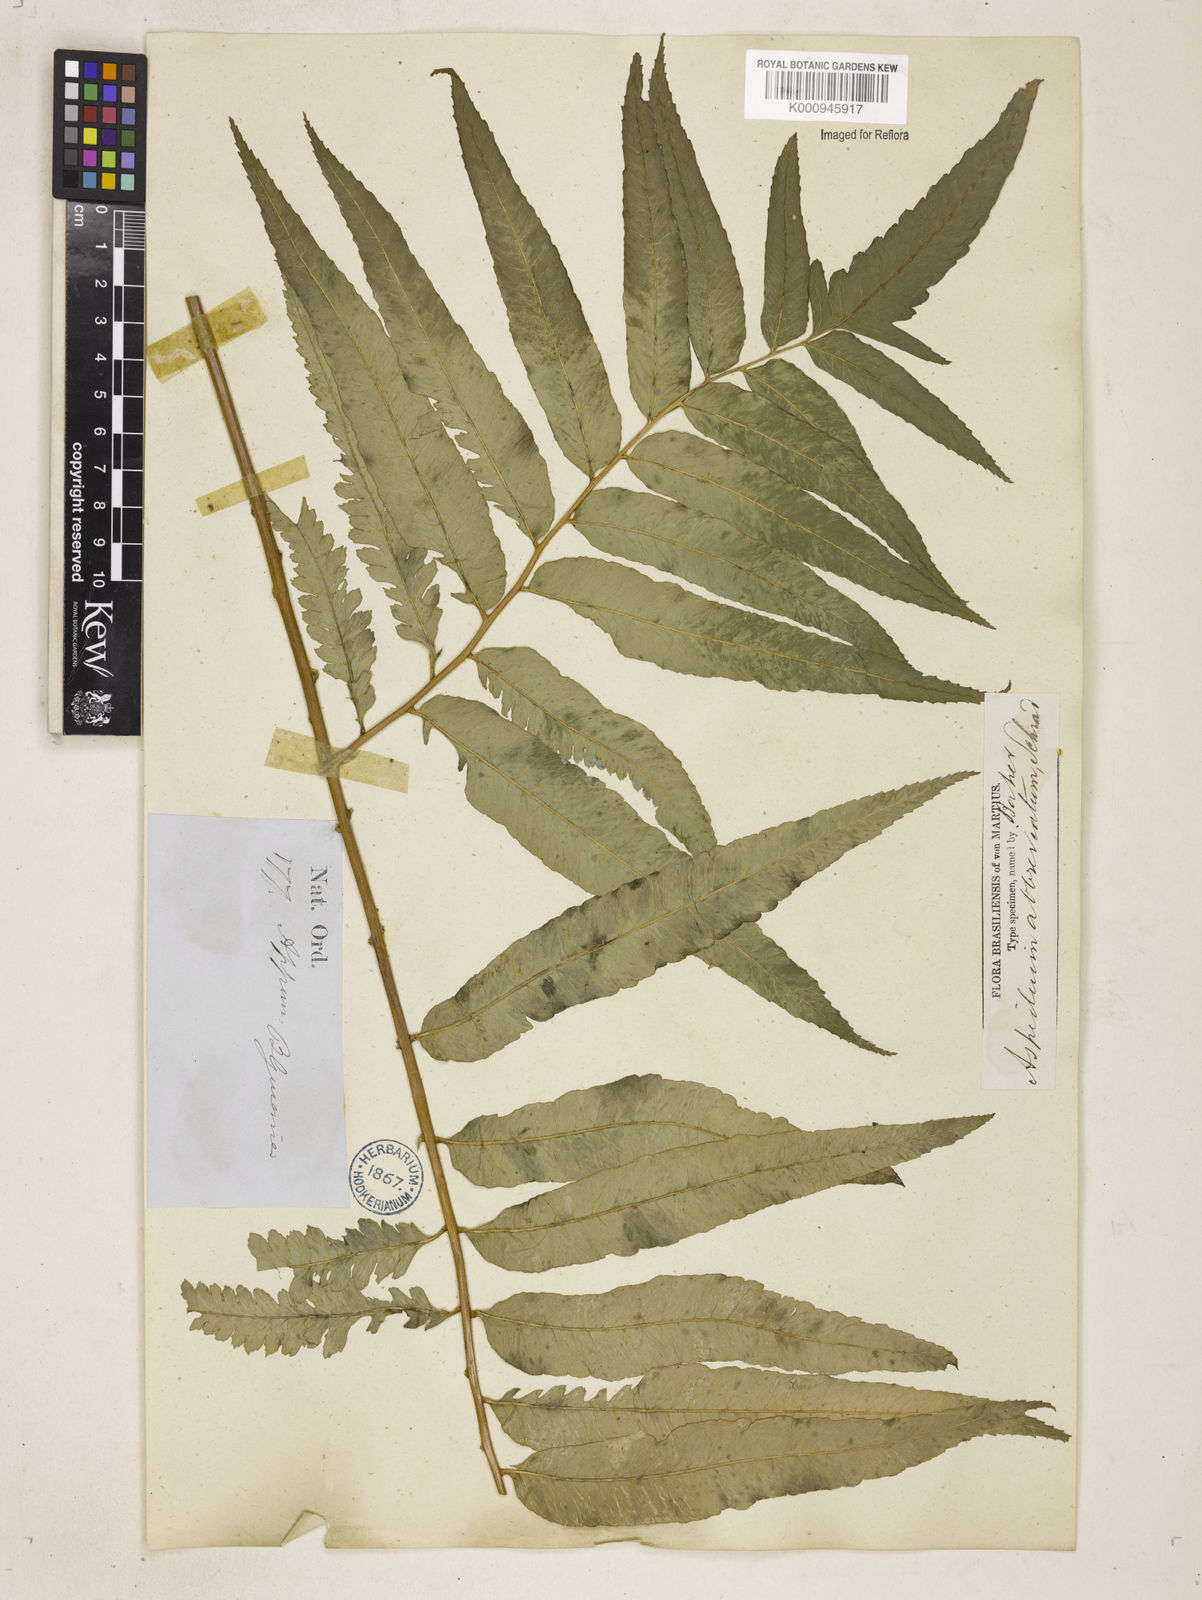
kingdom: Plantae
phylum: Tracheophyta
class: Polypodiopsida
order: Polypodiales
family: Dryopteridaceae
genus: Cyclodium
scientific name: Cyclodium
